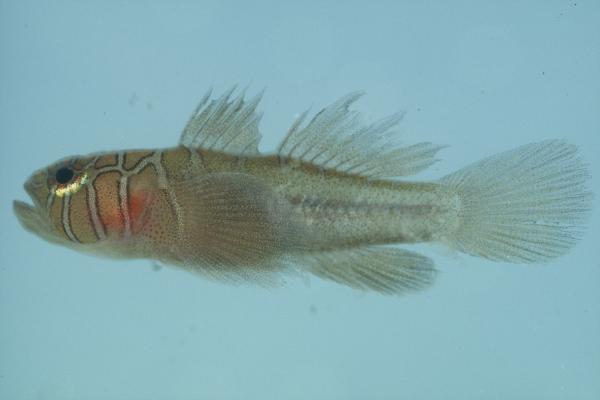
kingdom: Animalia
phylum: Chordata
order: Perciformes
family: Gobiidae
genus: Priolepis
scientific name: Priolepis compita
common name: Crossroads goby
